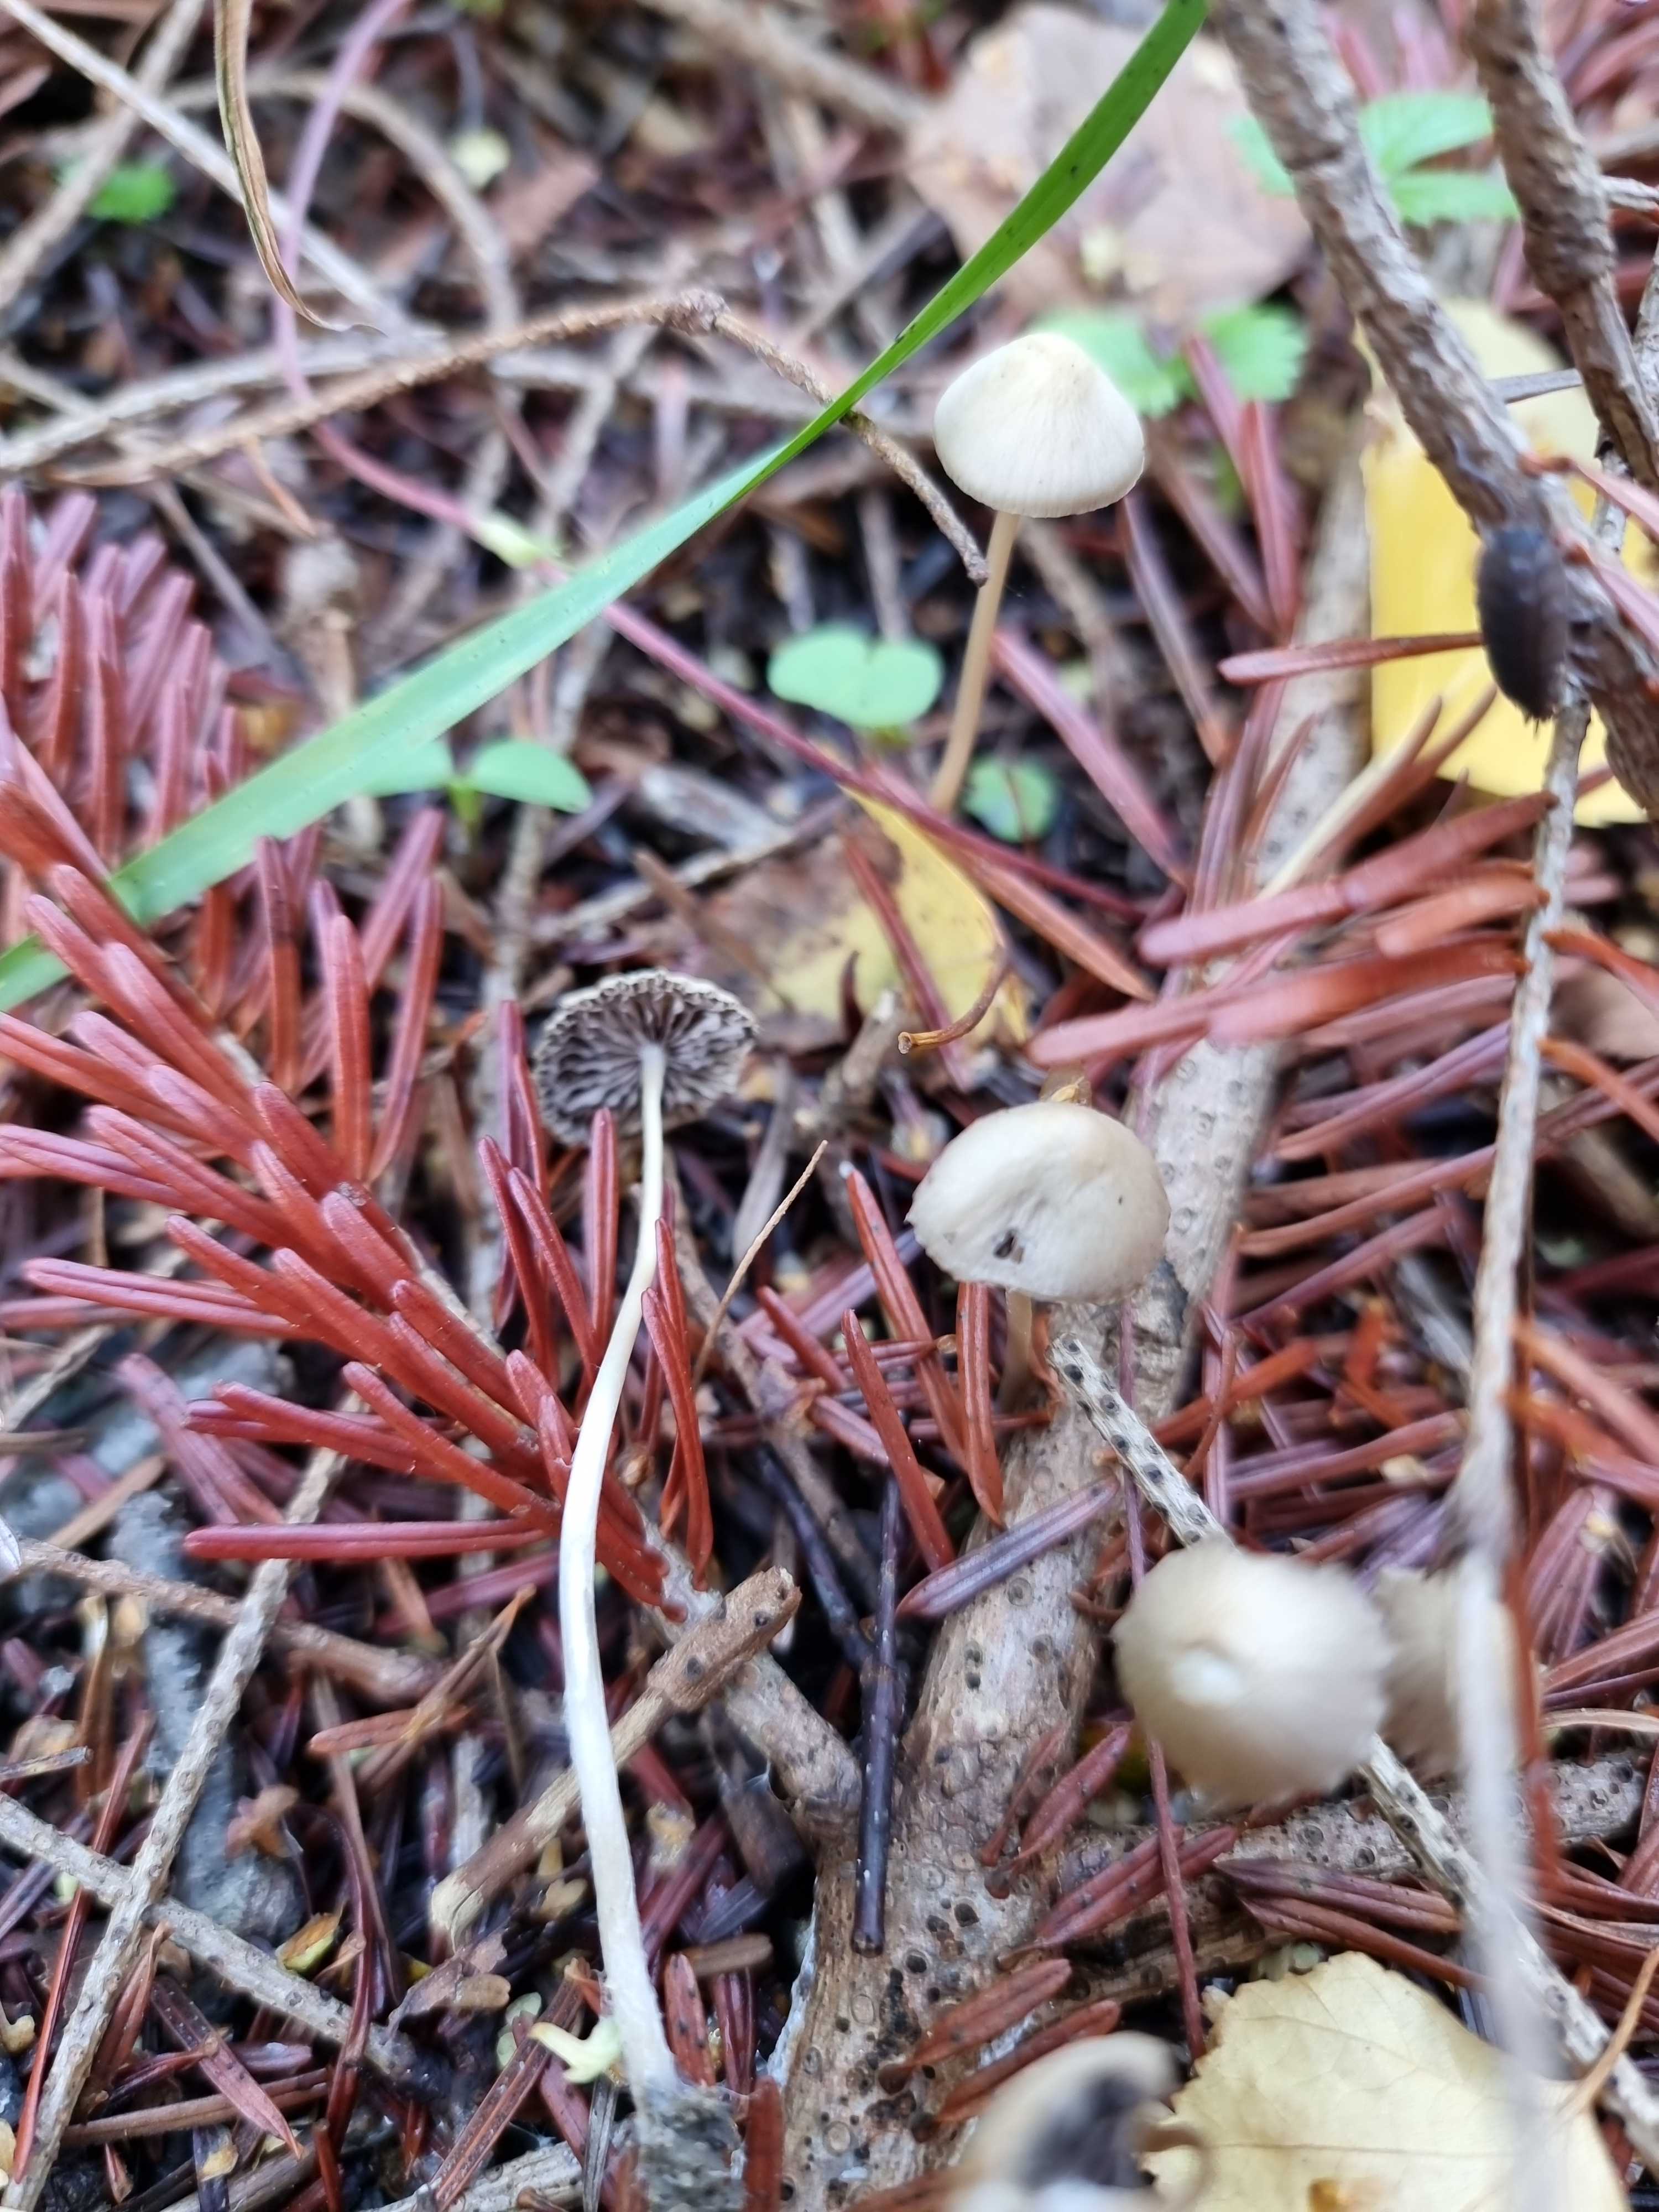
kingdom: Fungi
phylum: Basidiomycota
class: Agaricomycetes
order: Agaricales
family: Psathyrellaceae
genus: Psathyrella
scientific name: Psathyrella
